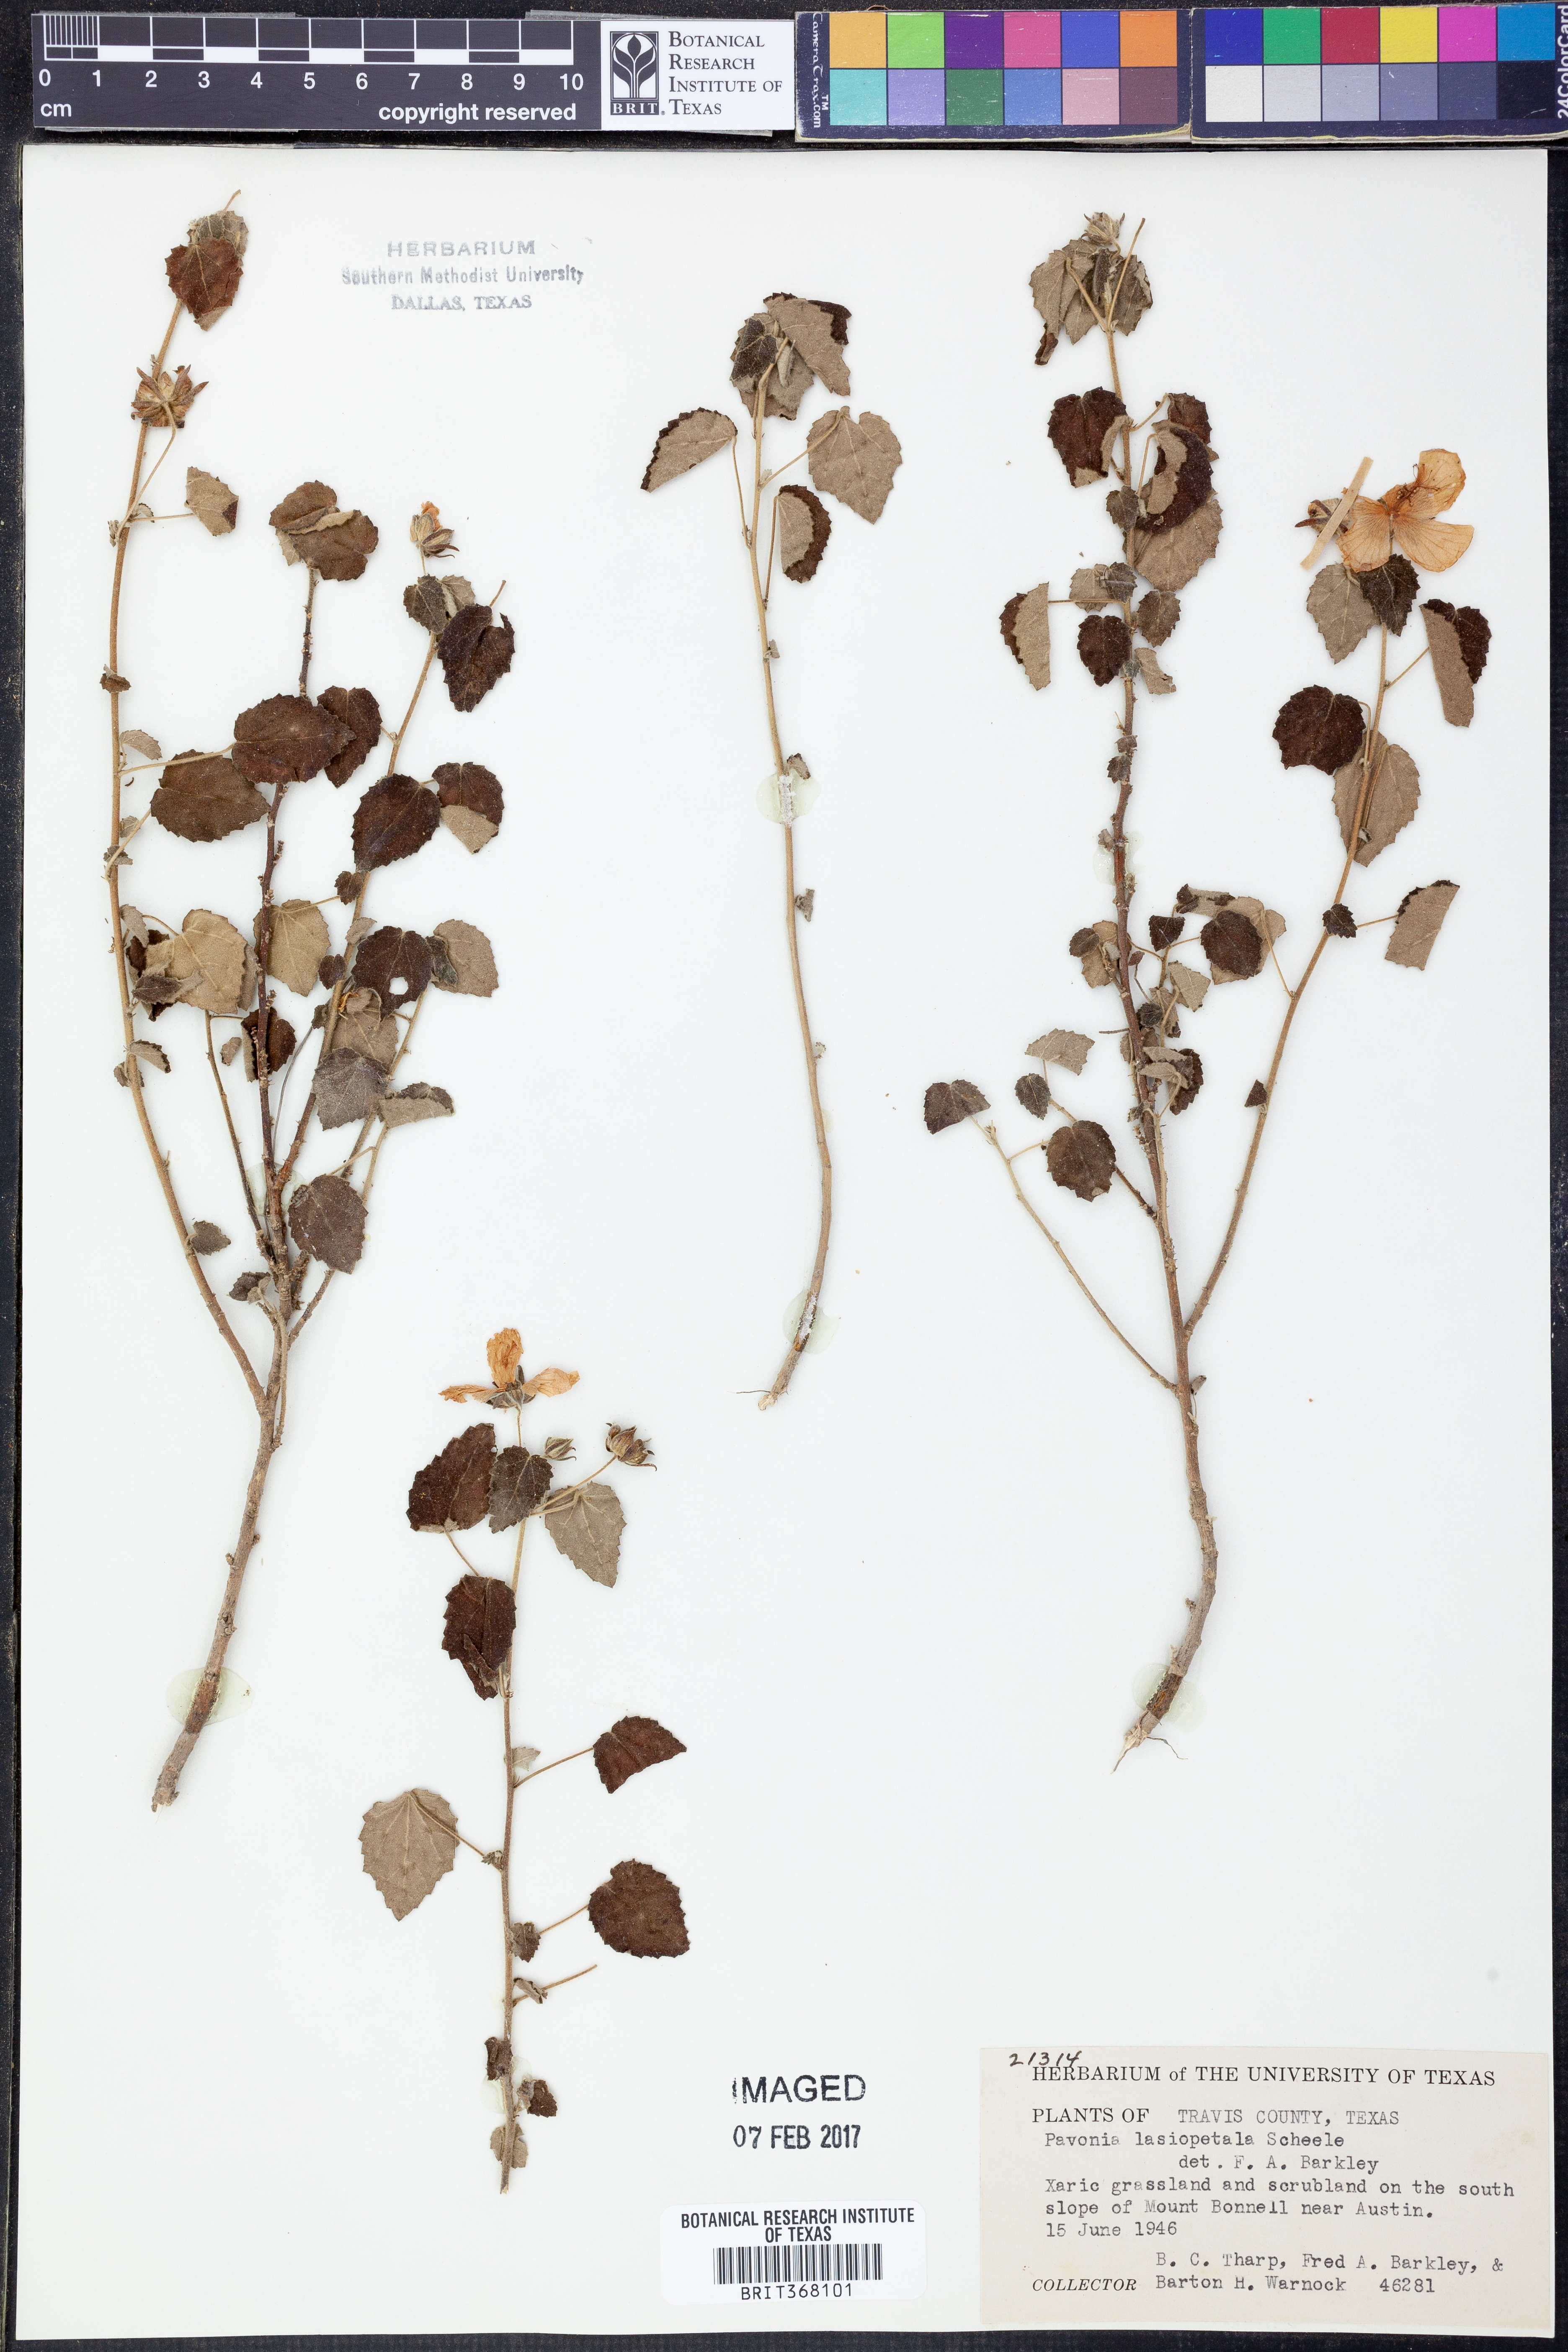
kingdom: Plantae
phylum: Tracheophyta
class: Magnoliopsida
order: Malvales
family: Malvaceae
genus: Pavonia
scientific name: Pavonia lasiopetala
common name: Texas swamp-mallow
